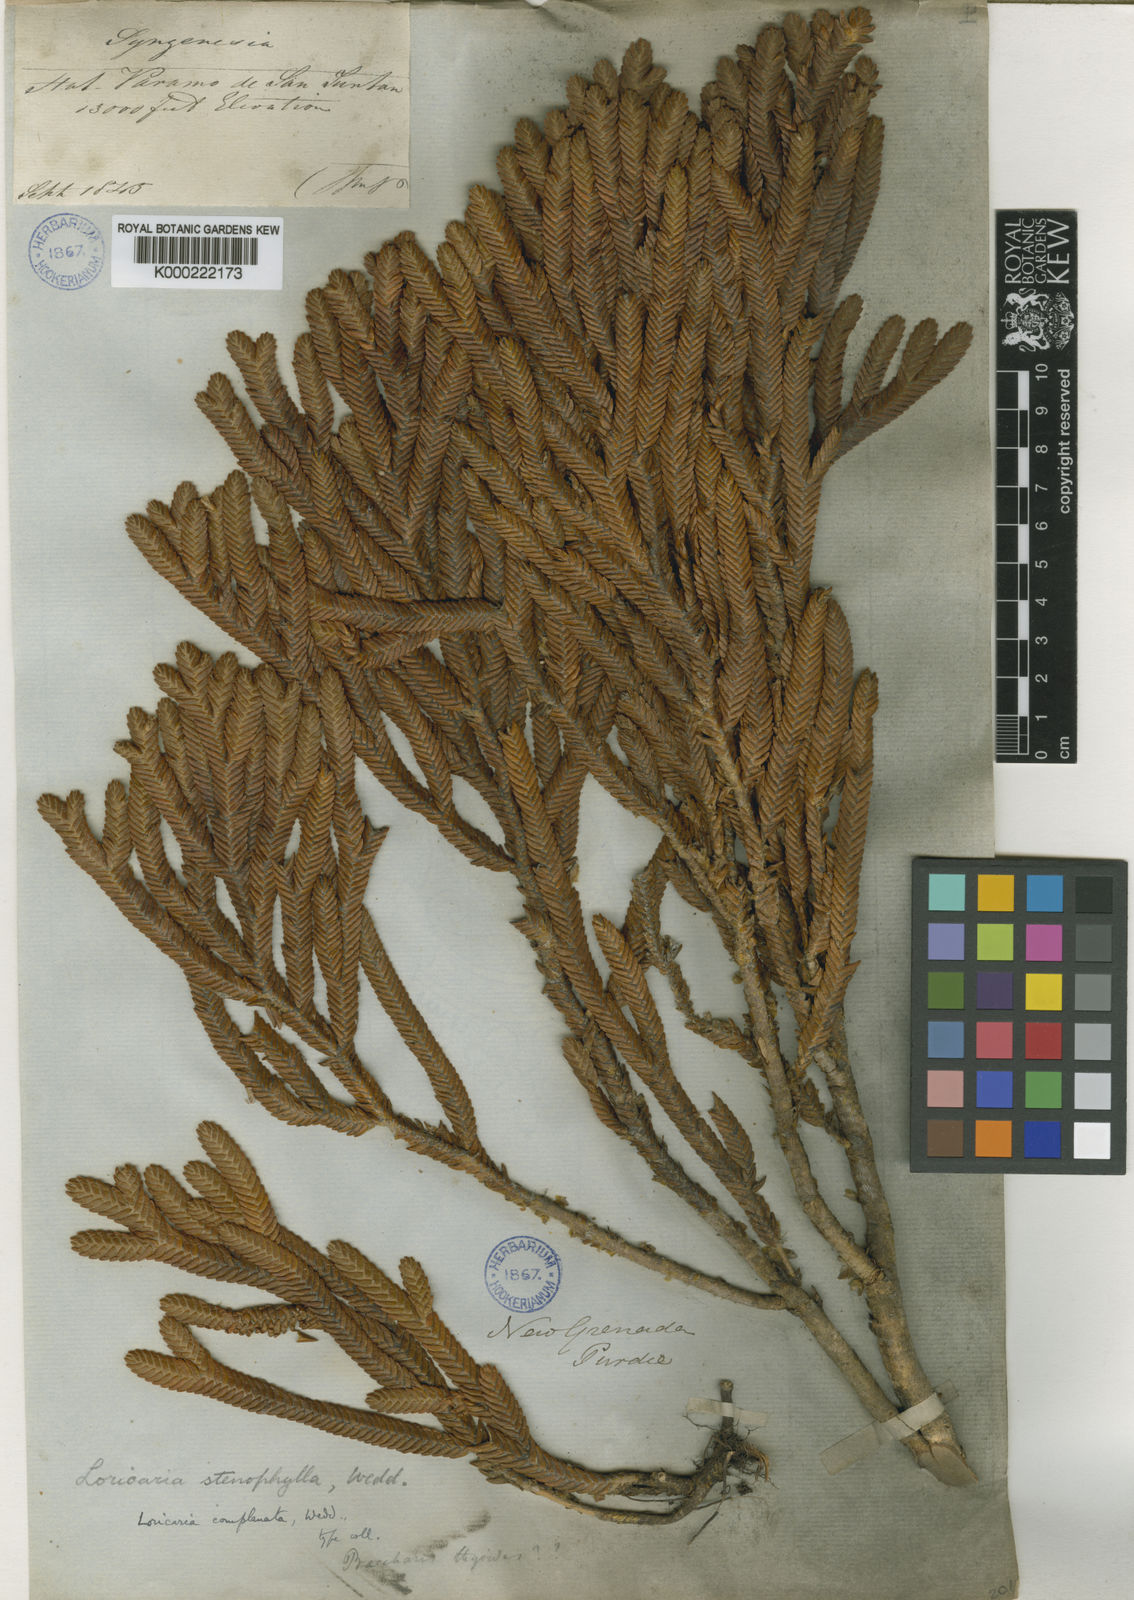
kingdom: Plantae
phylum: Tracheophyta
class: Magnoliopsida
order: Asterales
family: Asteraceae
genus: Andicolea
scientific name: Andicolea complanata
